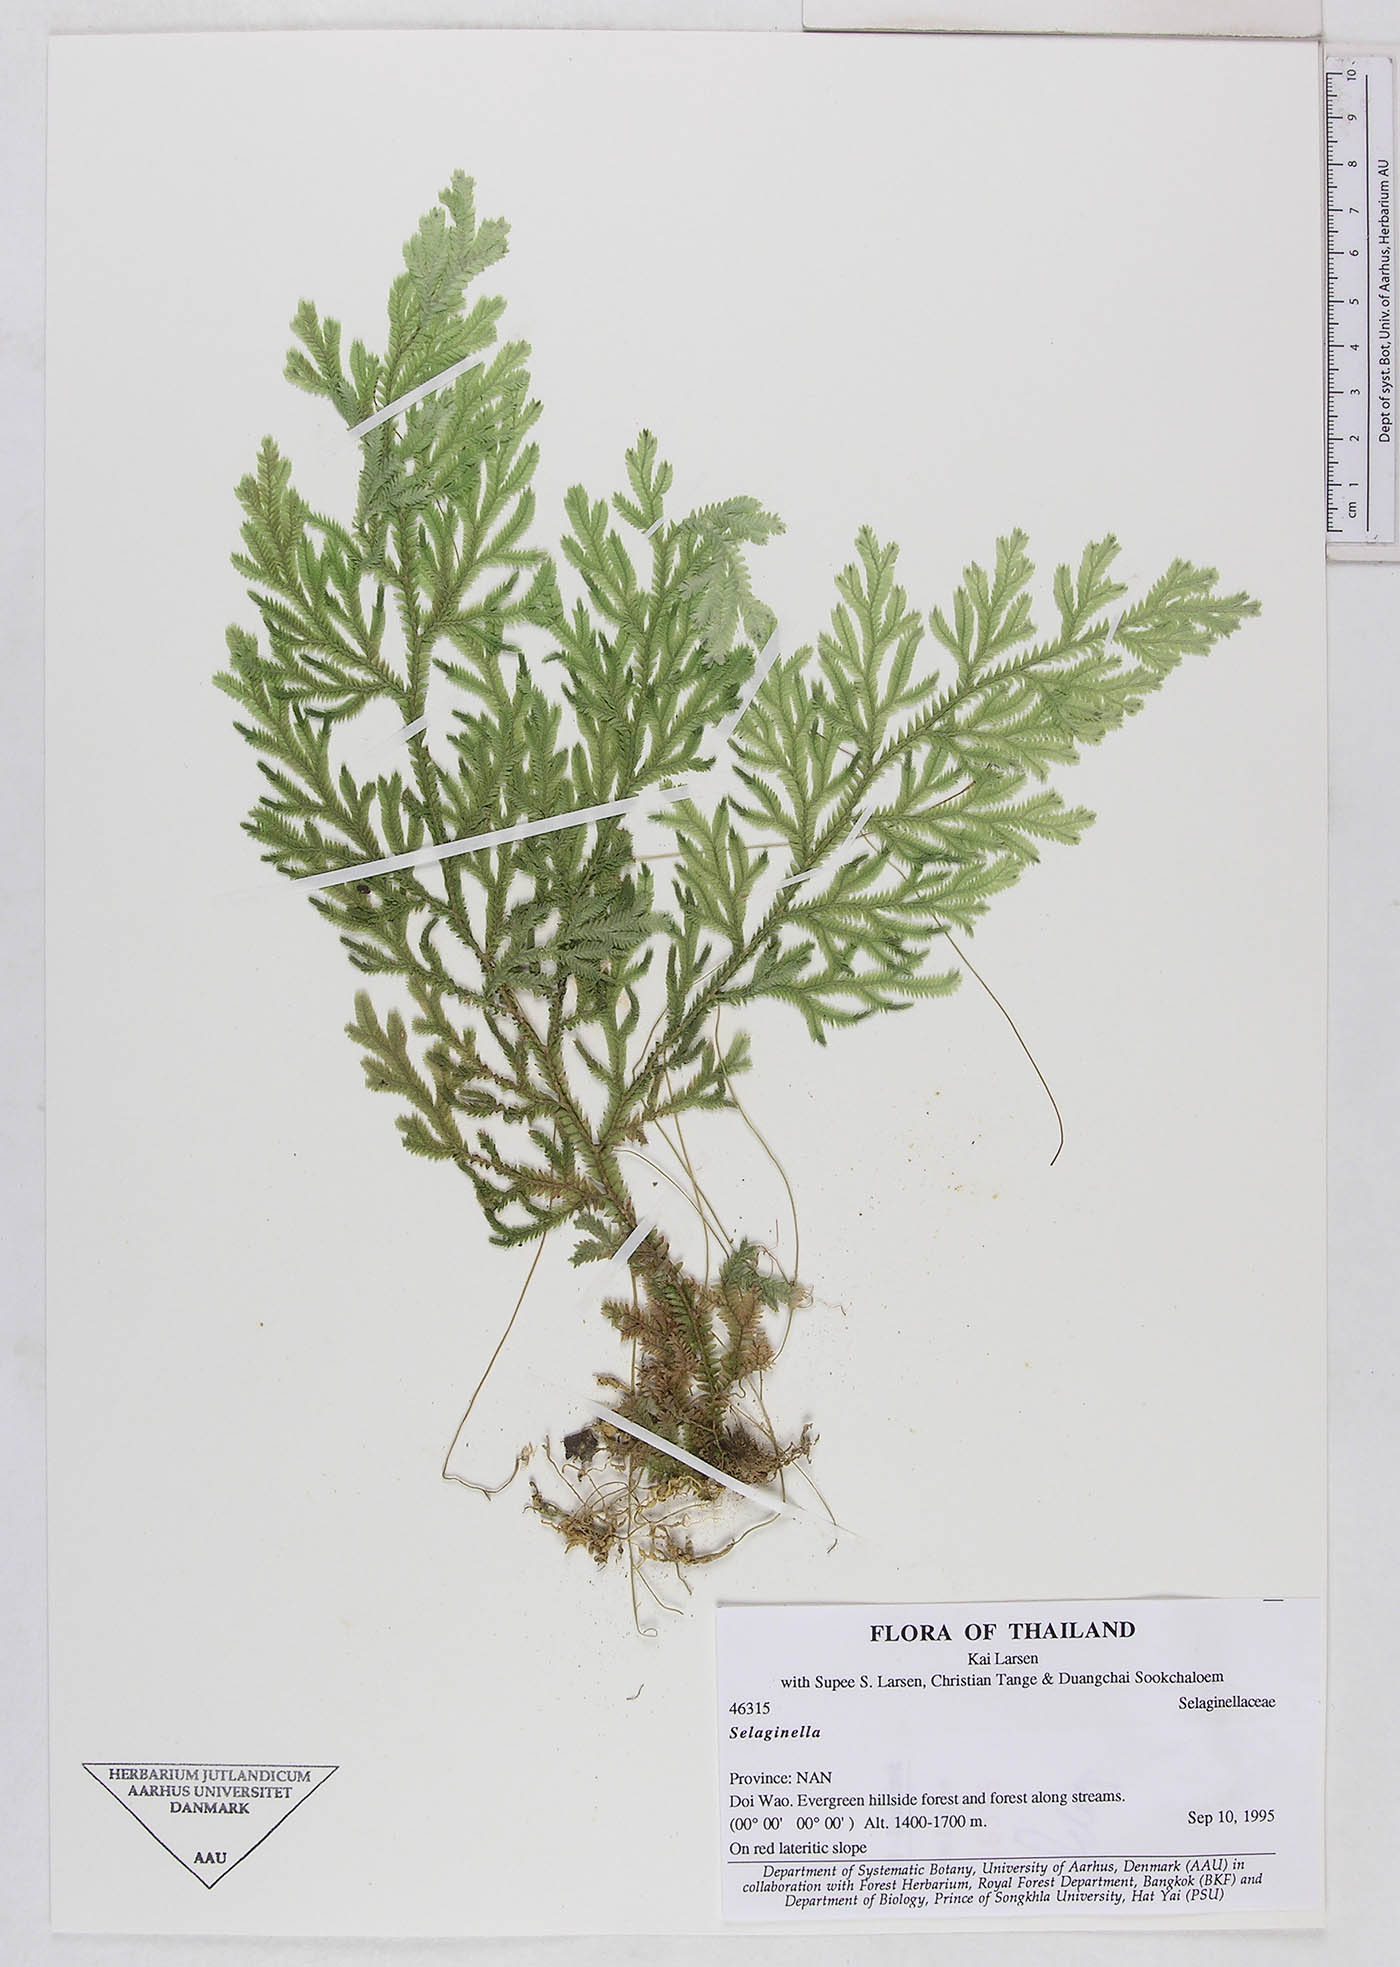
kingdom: Plantae
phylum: Tracheophyta
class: Lycopodiopsida
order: Selaginellales
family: Selaginellaceae
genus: Selaginella
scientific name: Selaginella
